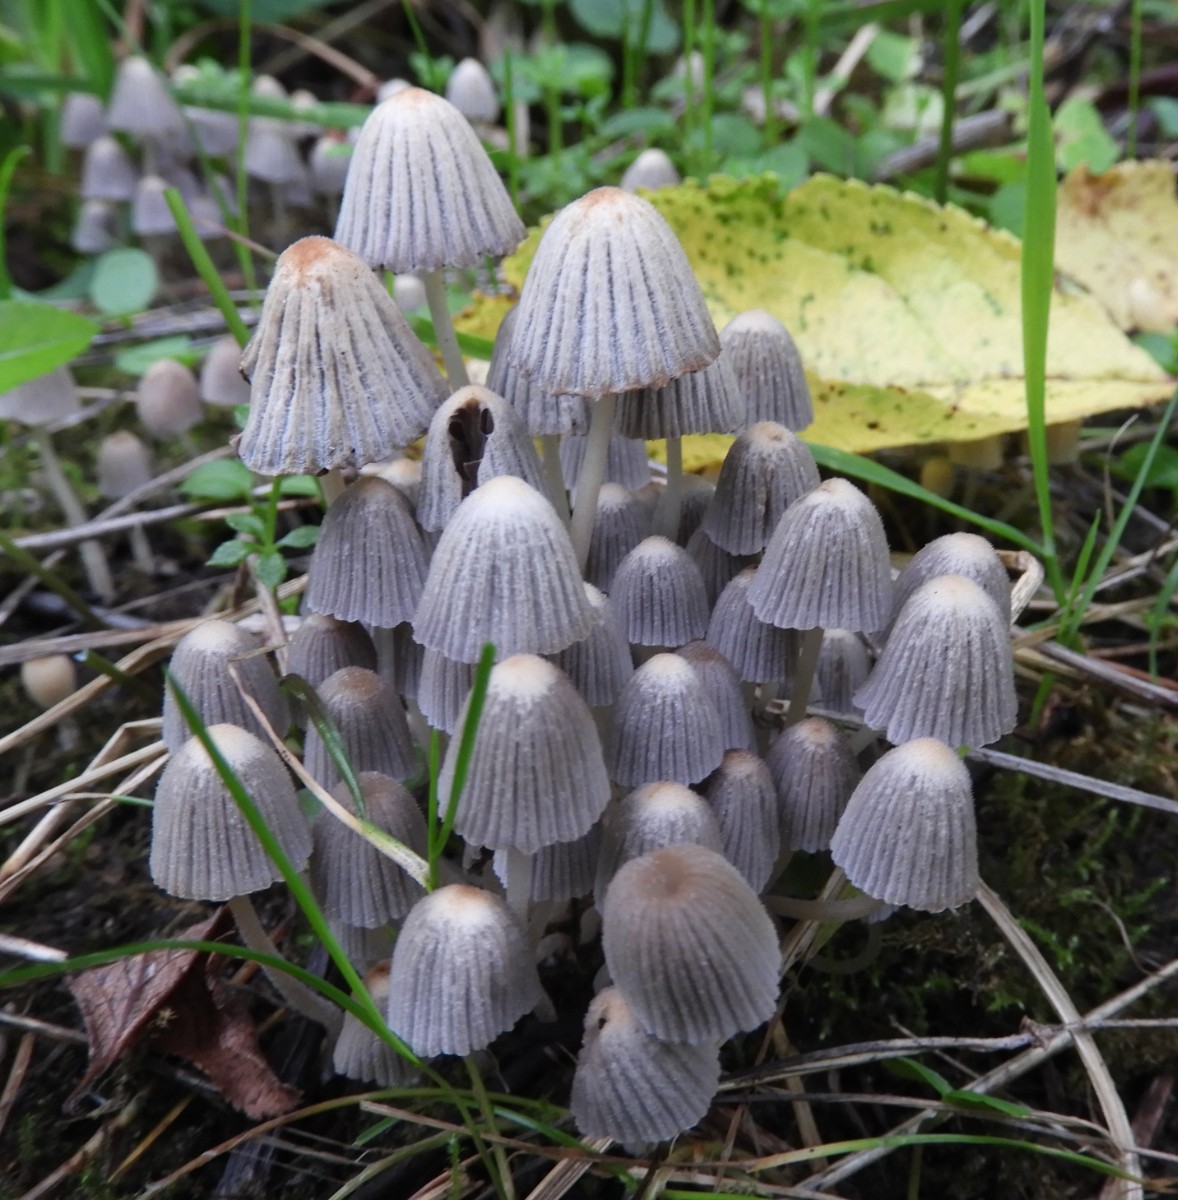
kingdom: Fungi
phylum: Basidiomycota
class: Agaricomycetes
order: Agaricales
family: Psathyrellaceae
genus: Coprinellus
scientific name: Coprinellus disseminatus
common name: bredsået blækhat
